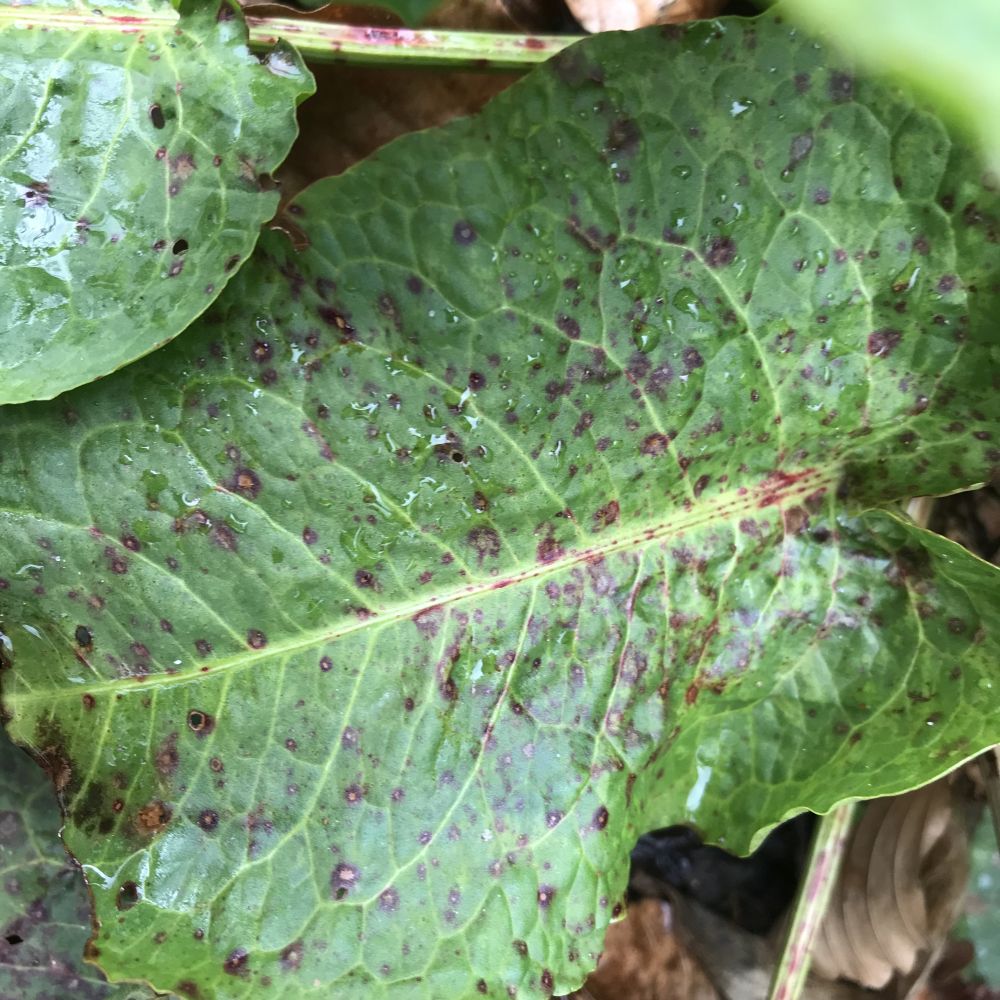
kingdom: Fungi
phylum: Ascomycota
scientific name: Ascomycota
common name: sæksvampe
